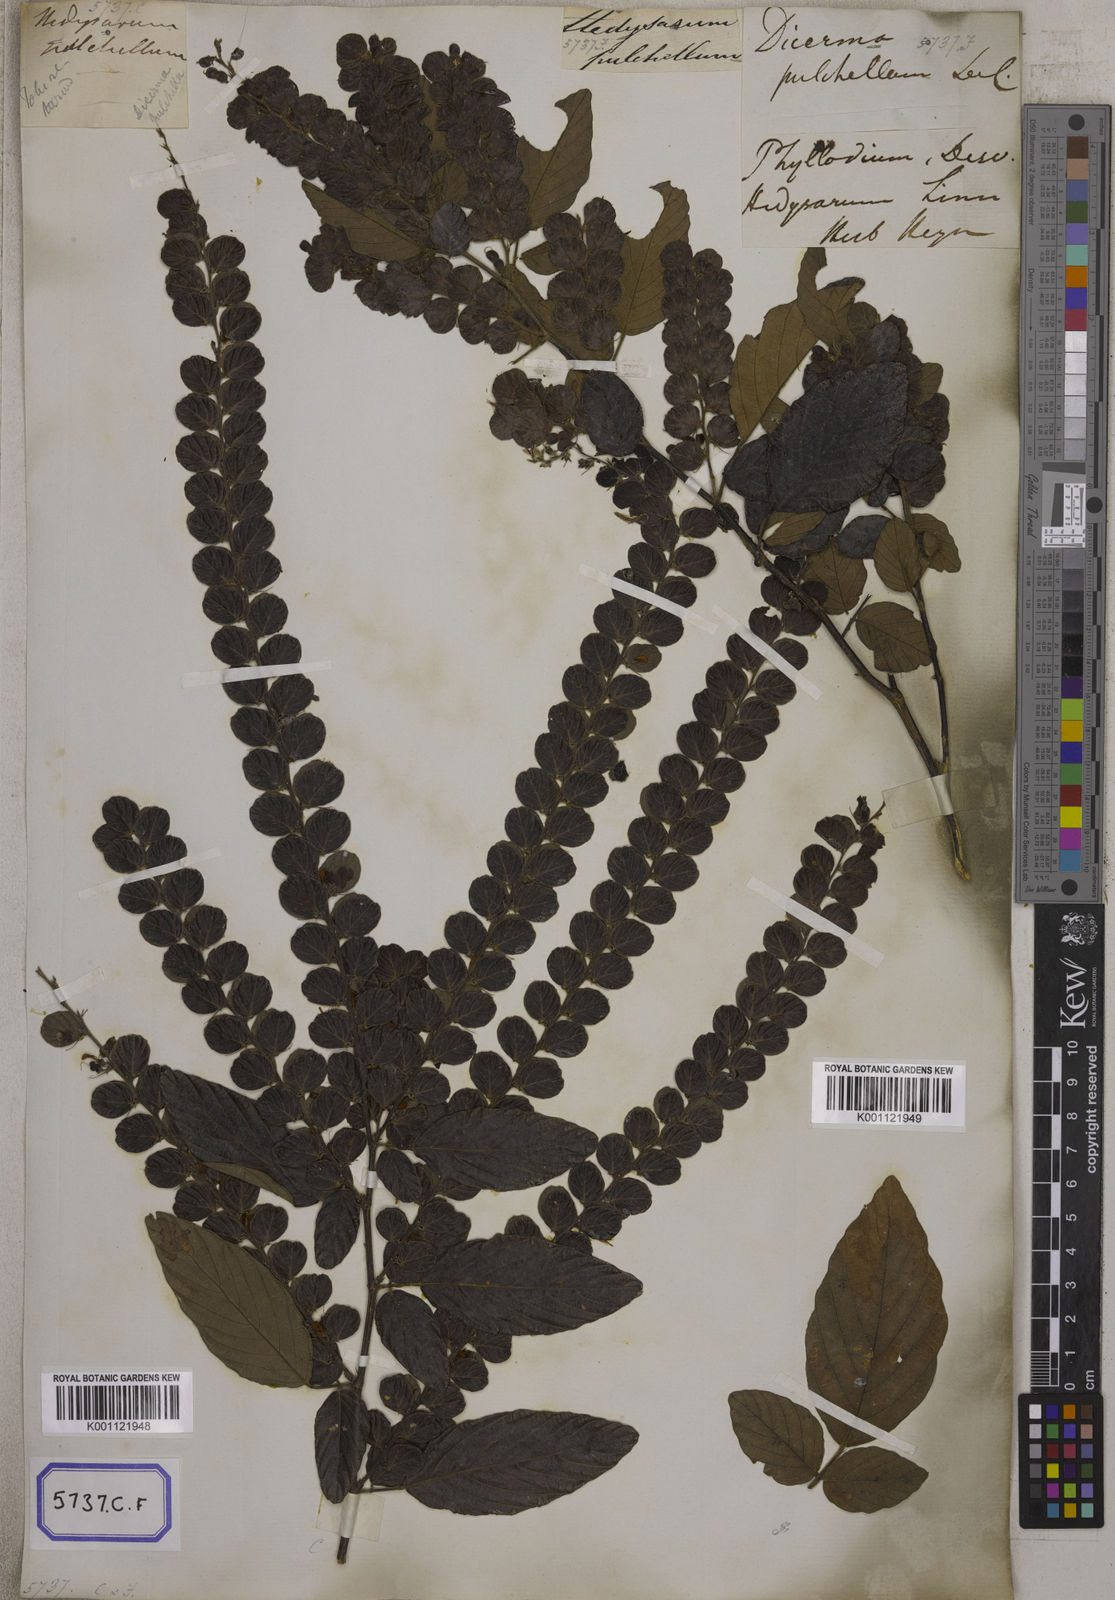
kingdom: Plantae
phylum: Tracheophyta
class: Magnoliopsida
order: Fabales
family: Fabaceae
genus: Phyllodium
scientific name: Phyllodium pulchellum
